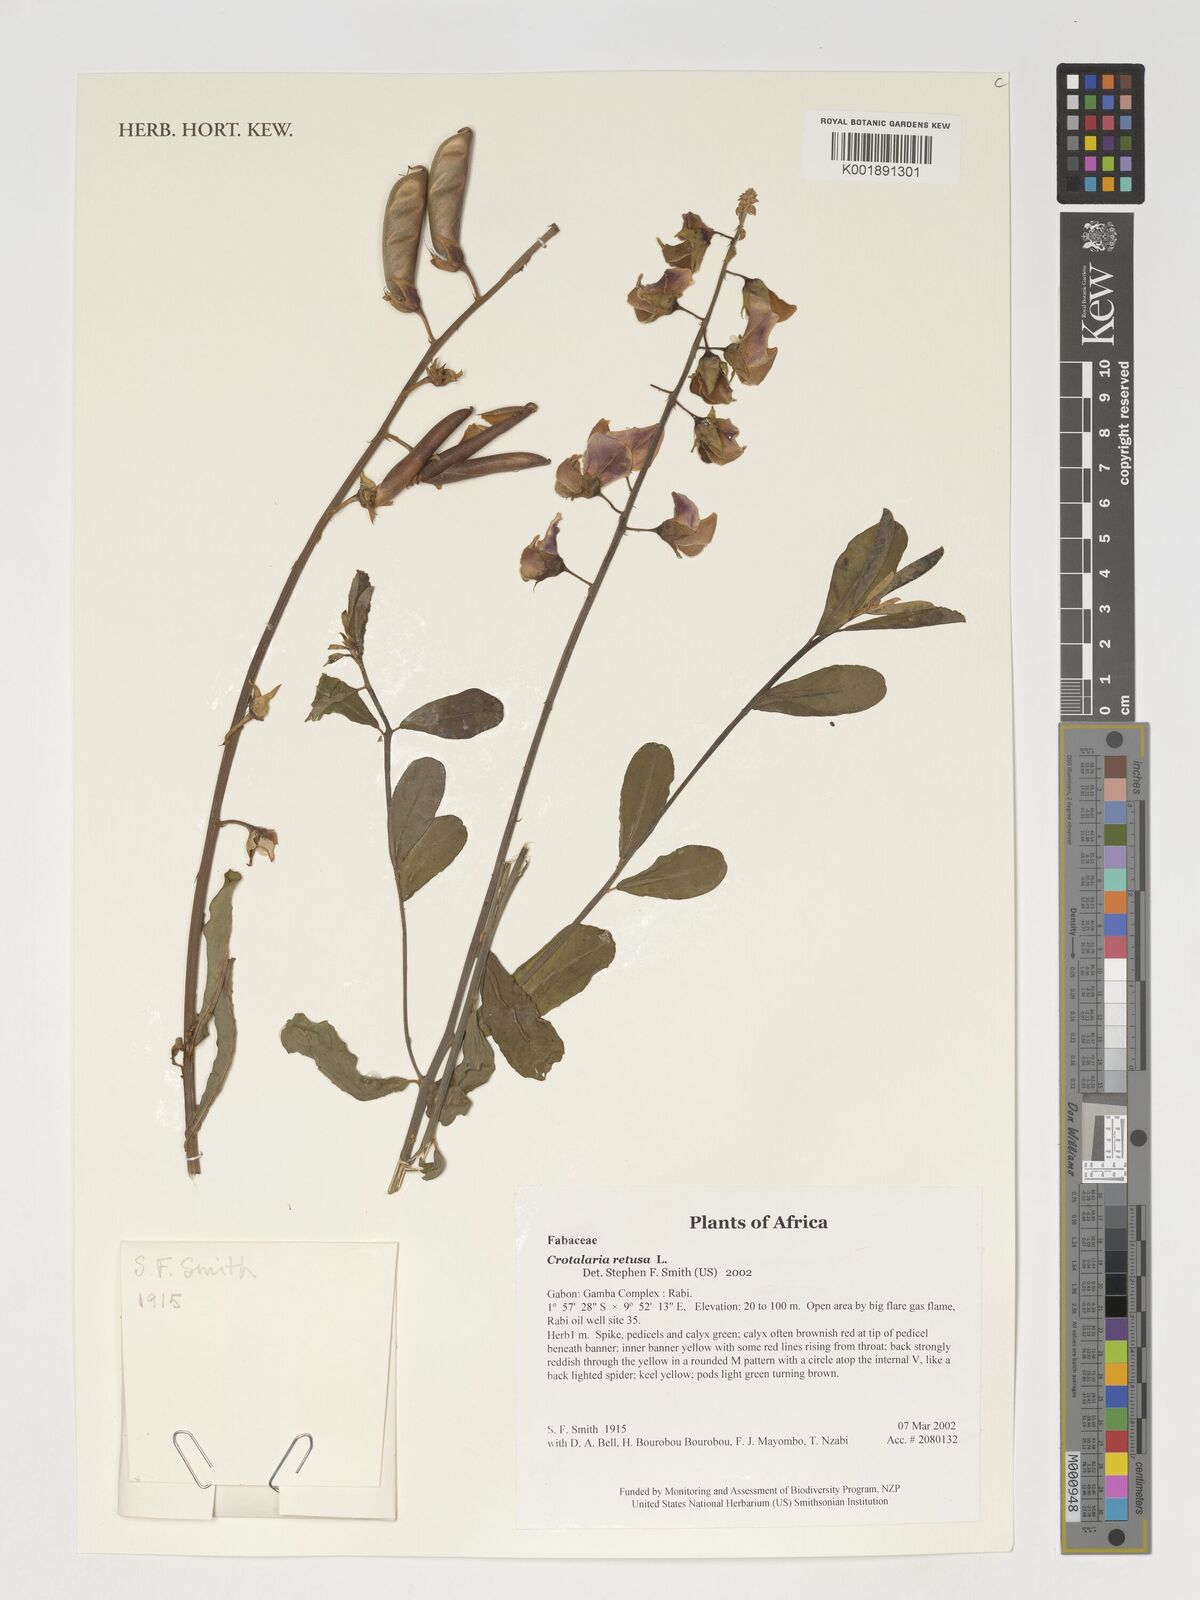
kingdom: Plantae
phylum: Tracheophyta
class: Magnoliopsida
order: Fabales
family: Fabaceae
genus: Crotalaria
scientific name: Crotalaria retusa
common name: Rattleweed
